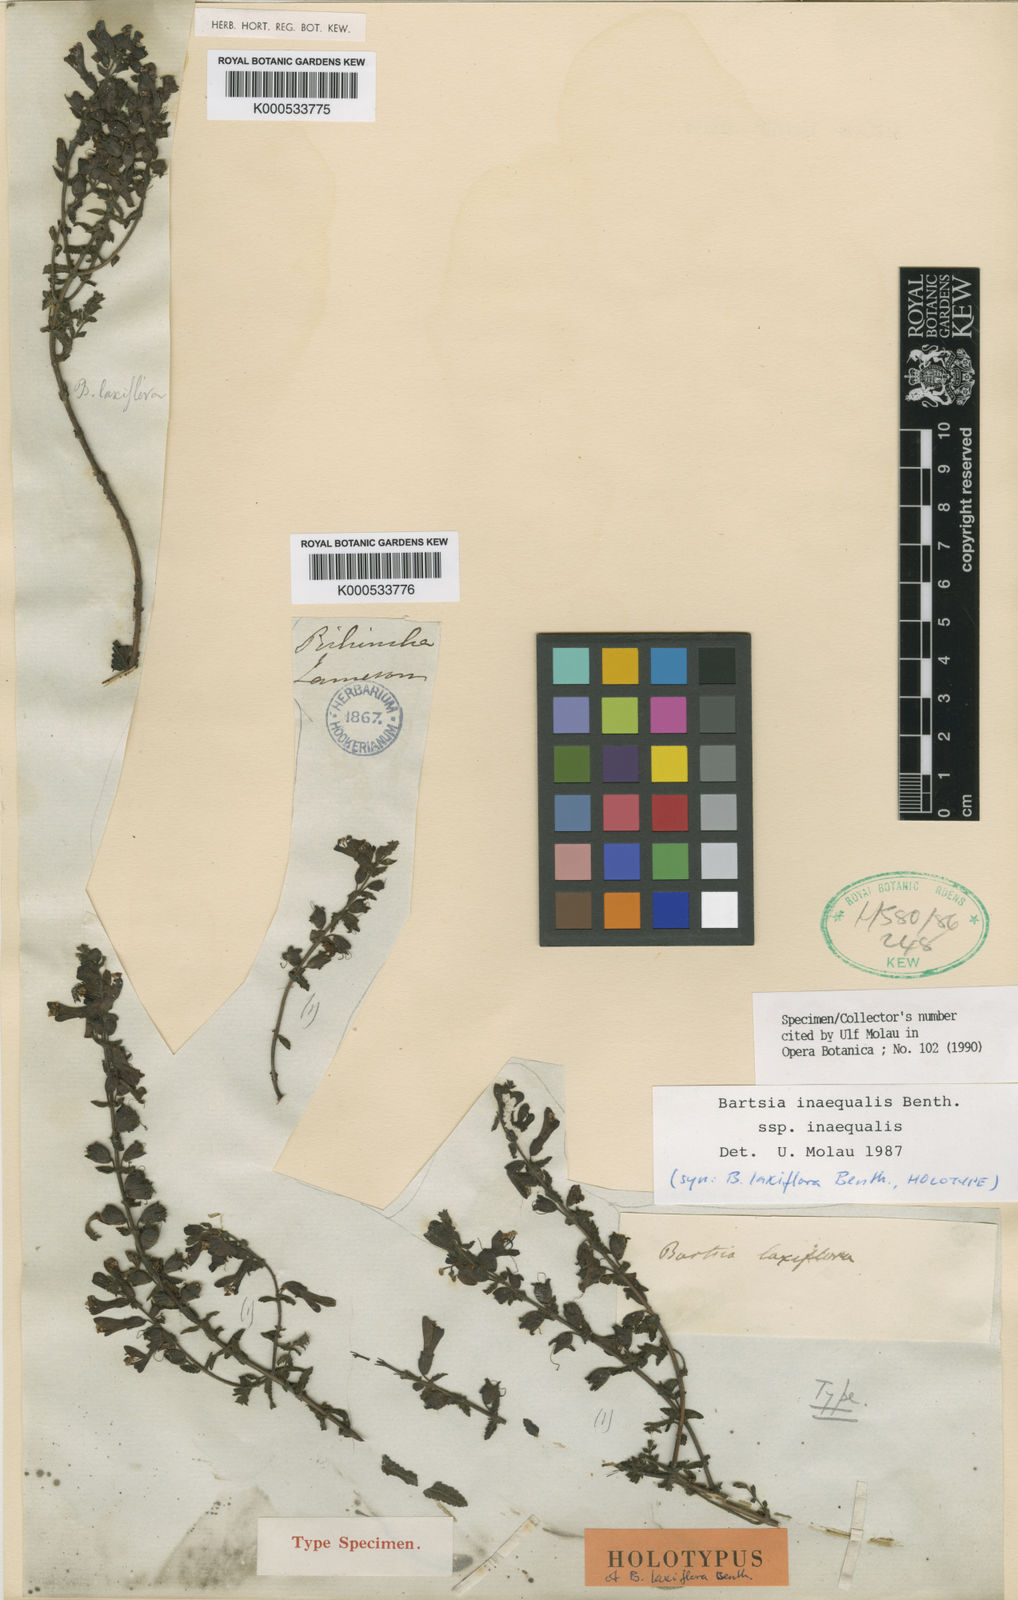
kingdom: Plantae
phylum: Tracheophyta
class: Magnoliopsida
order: Lamiales
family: Orobanchaceae
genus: Neobartsia
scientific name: Neobartsia inaequalis
